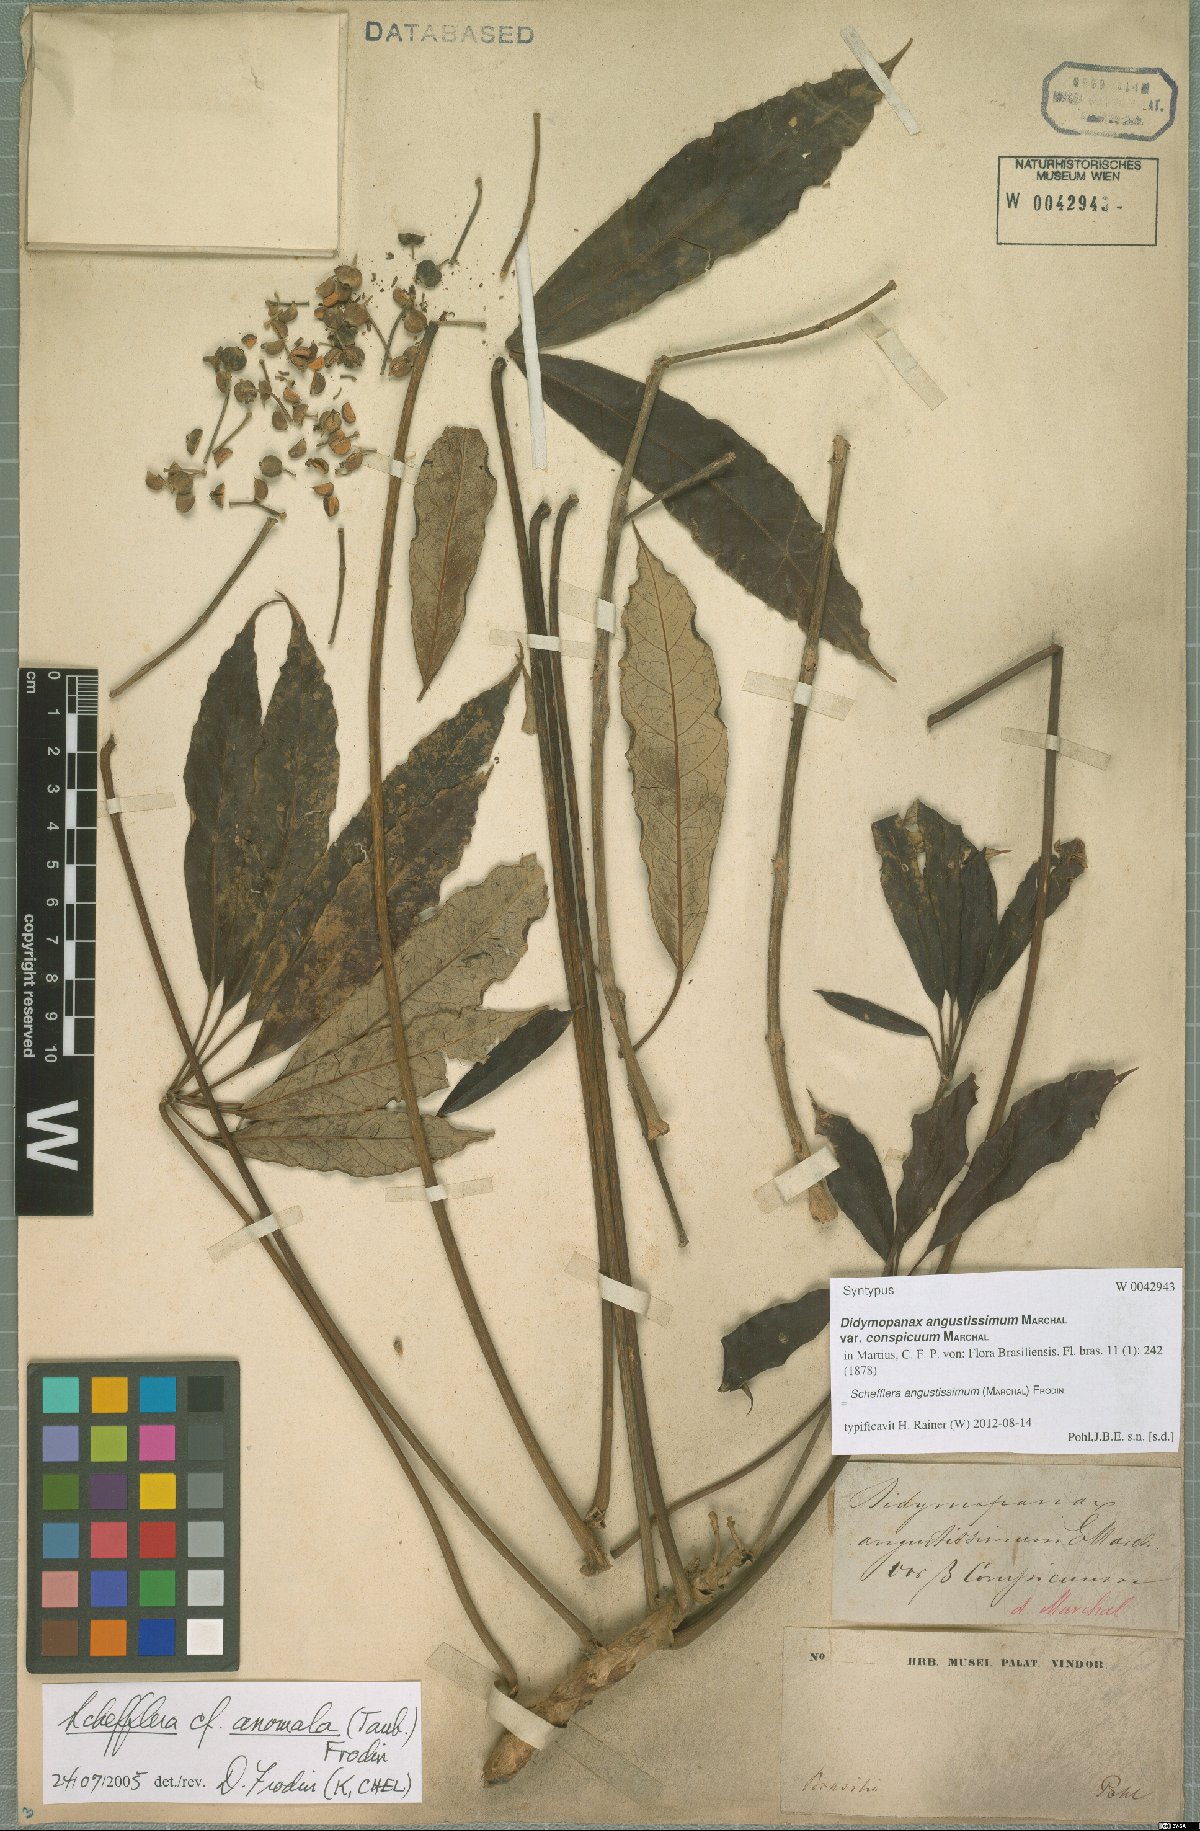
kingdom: Plantae
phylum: Tracheophyta
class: Magnoliopsida
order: Apiales
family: Araliaceae
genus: Didymopanax
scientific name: Didymopanax angustissimus
